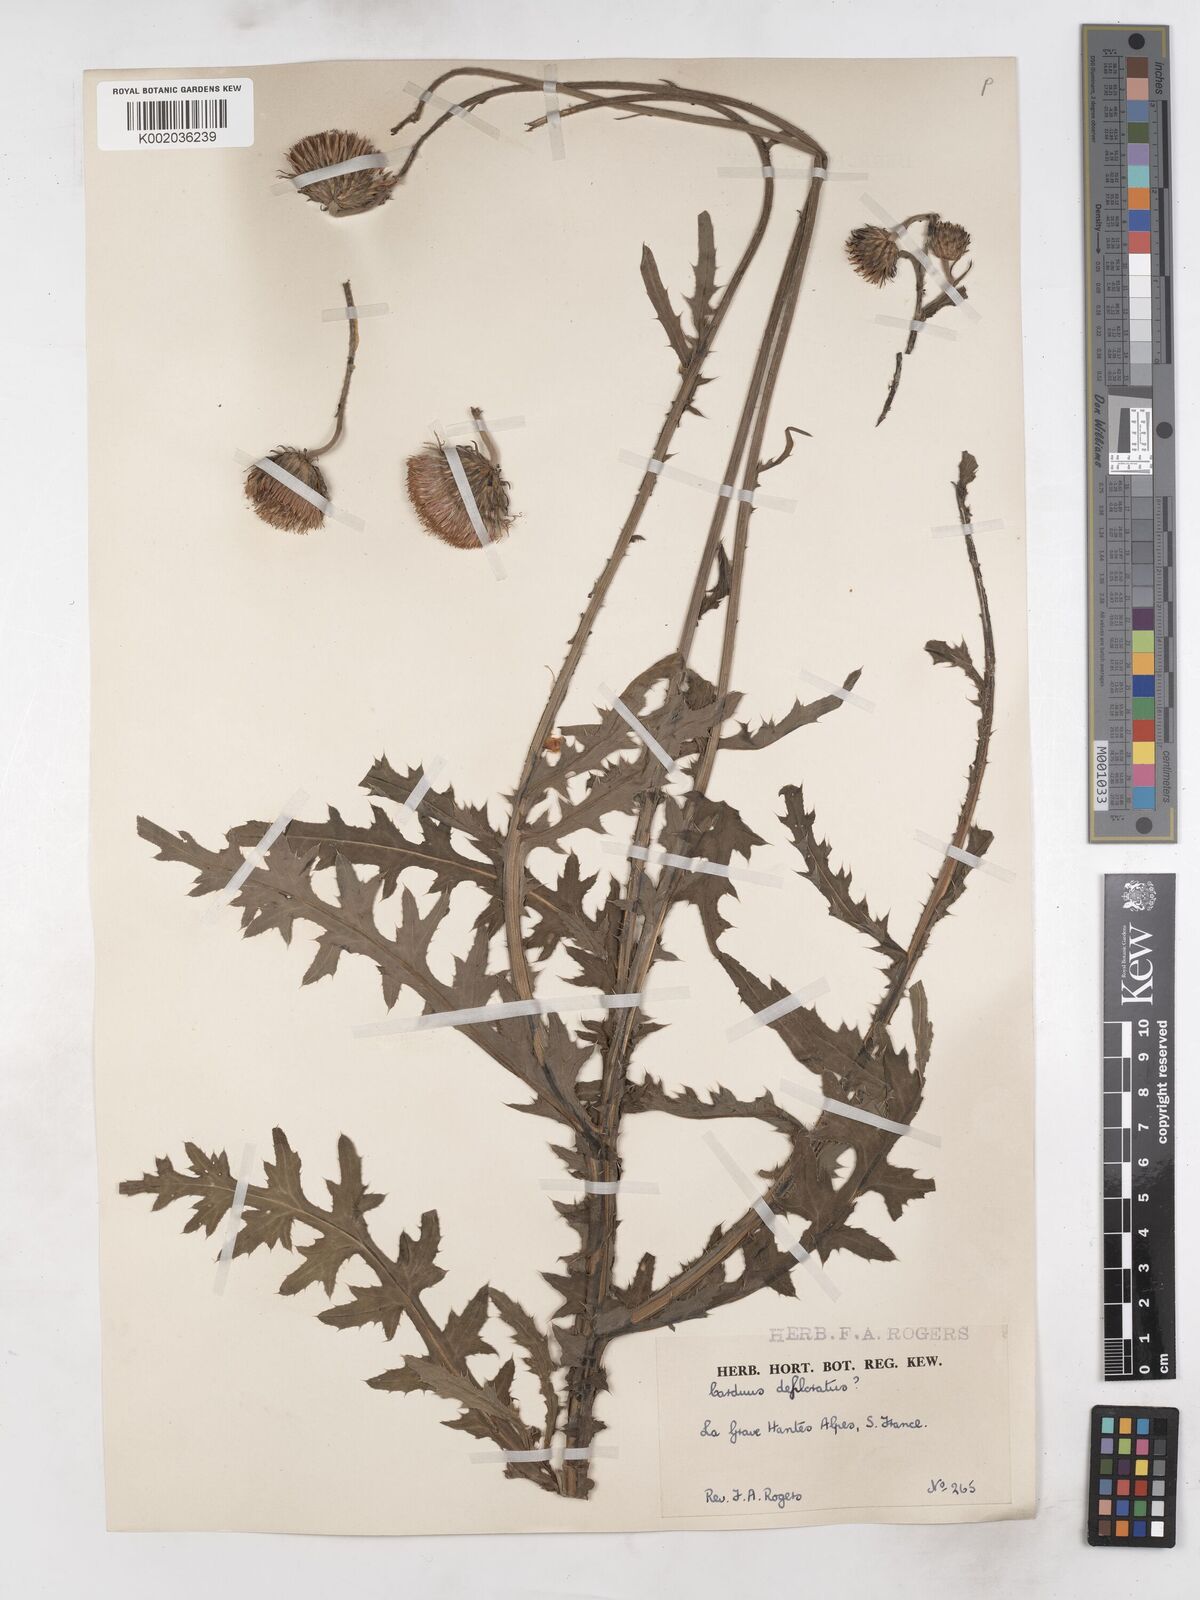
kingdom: Plantae
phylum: Tracheophyta
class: Magnoliopsida
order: Asterales
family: Asteraceae
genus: Carduus
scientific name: Carduus defloratus
